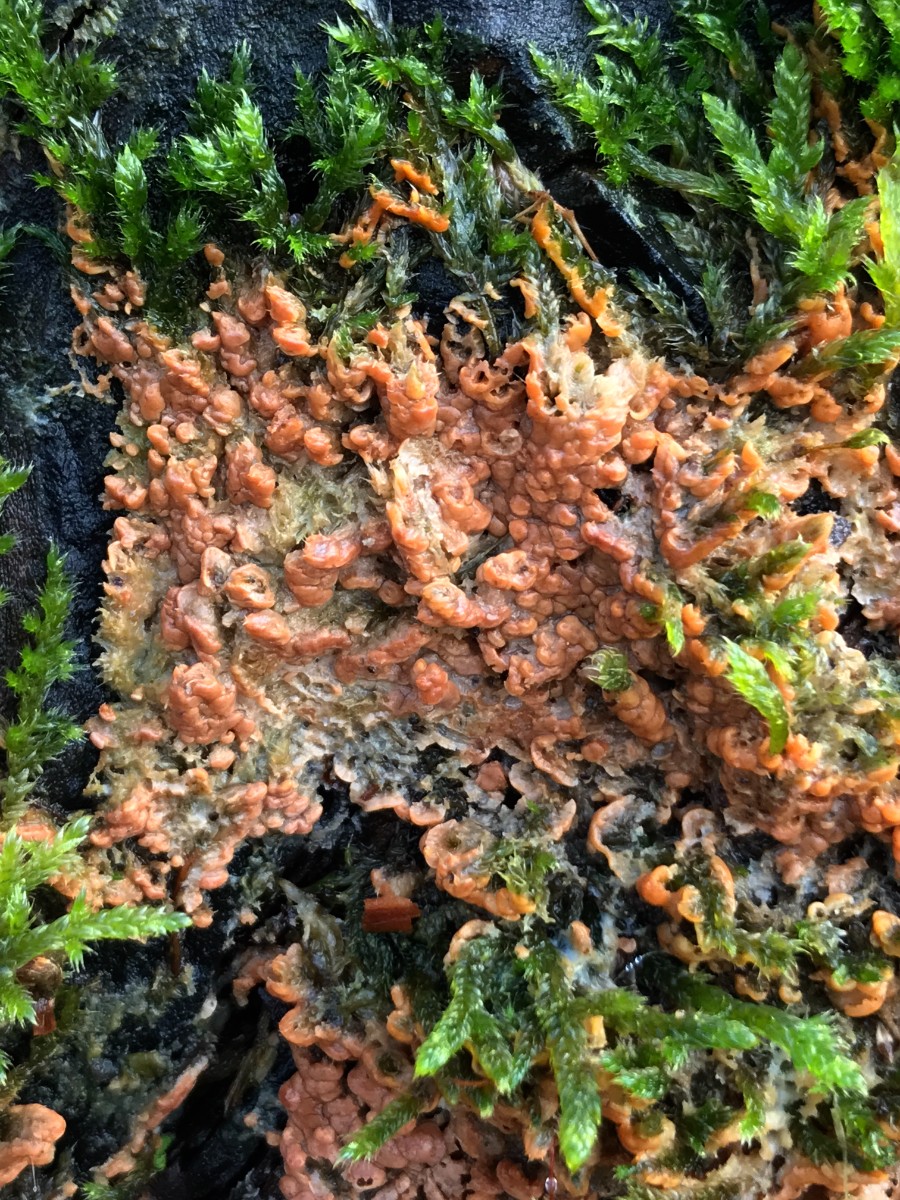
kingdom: Fungi
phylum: Basidiomycota
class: Agaricomycetes
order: Russulales
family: Peniophoraceae
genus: Gloiothele
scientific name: Gloiothele lactescens
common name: bitter olieskind
